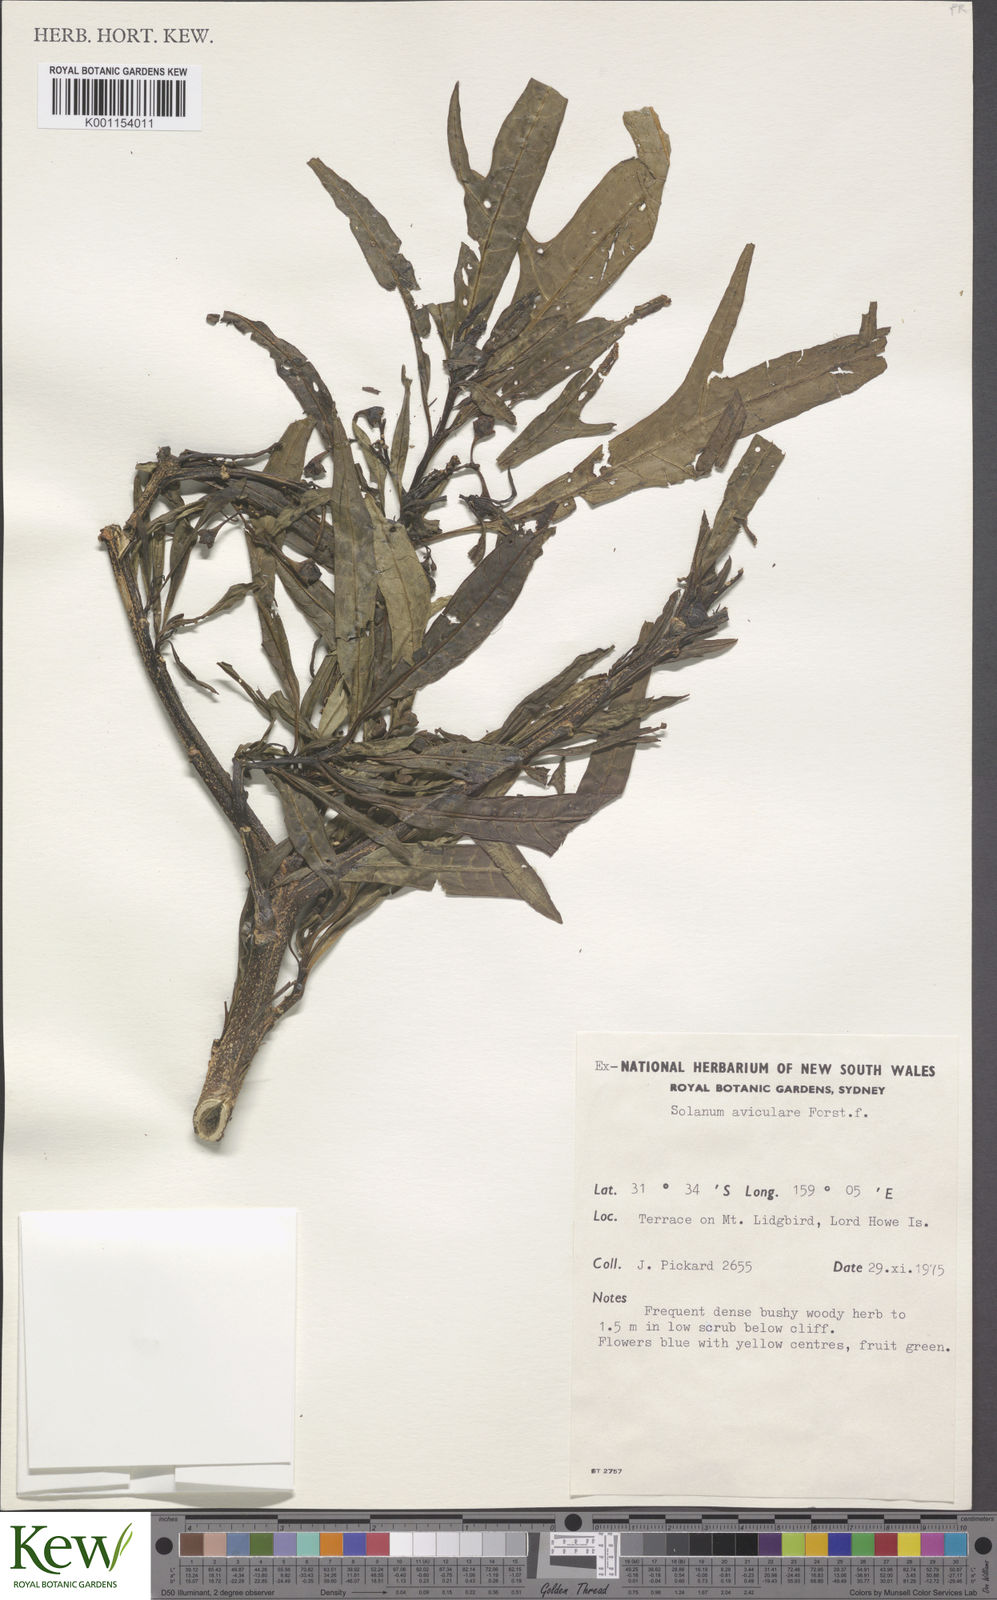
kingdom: Plantae
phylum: Tracheophyta
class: Magnoliopsida
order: Solanales
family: Solanaceae
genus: Solanum
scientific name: Solanum aviculare
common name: New zealand nightshade
